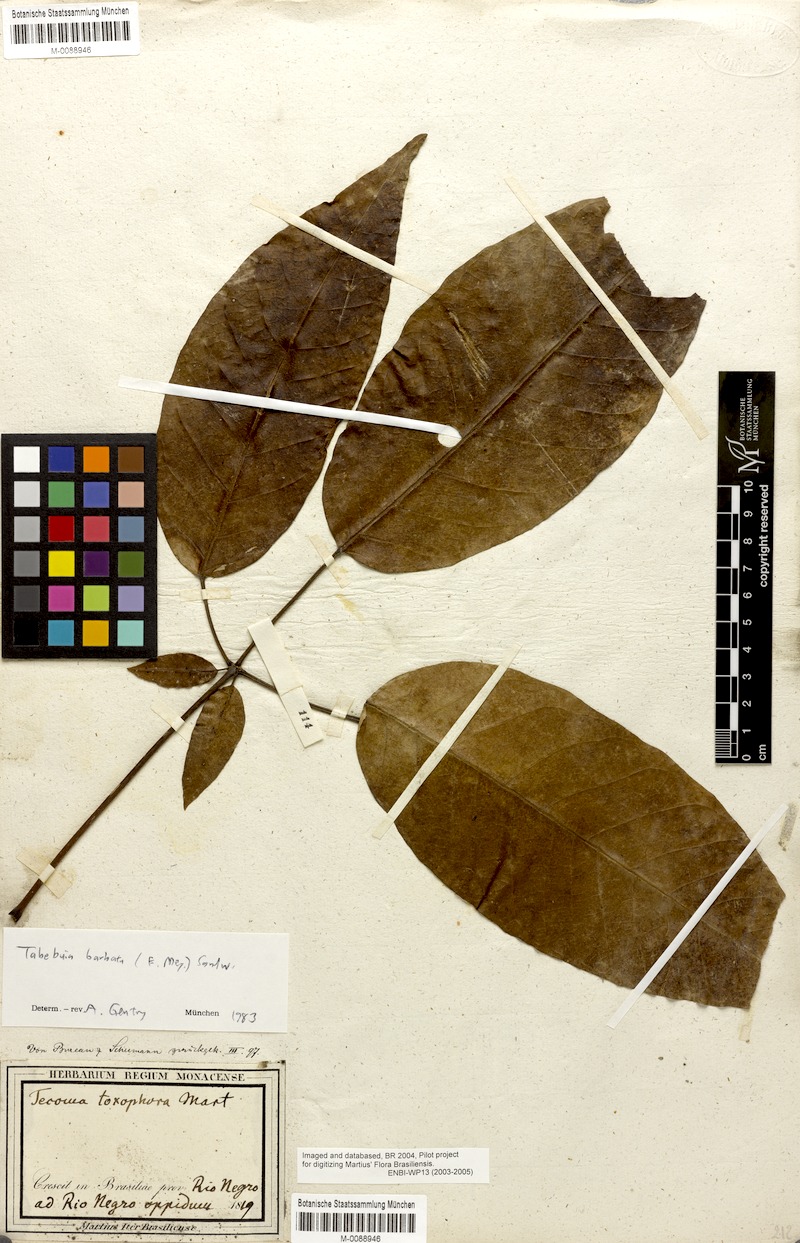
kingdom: Plantae
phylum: Tracheophyta
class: Magnoliopsida
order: Lamiales
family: Bignoniaceae
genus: Handroanthus
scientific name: Handroanthus barbatus
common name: Trumpet trees
